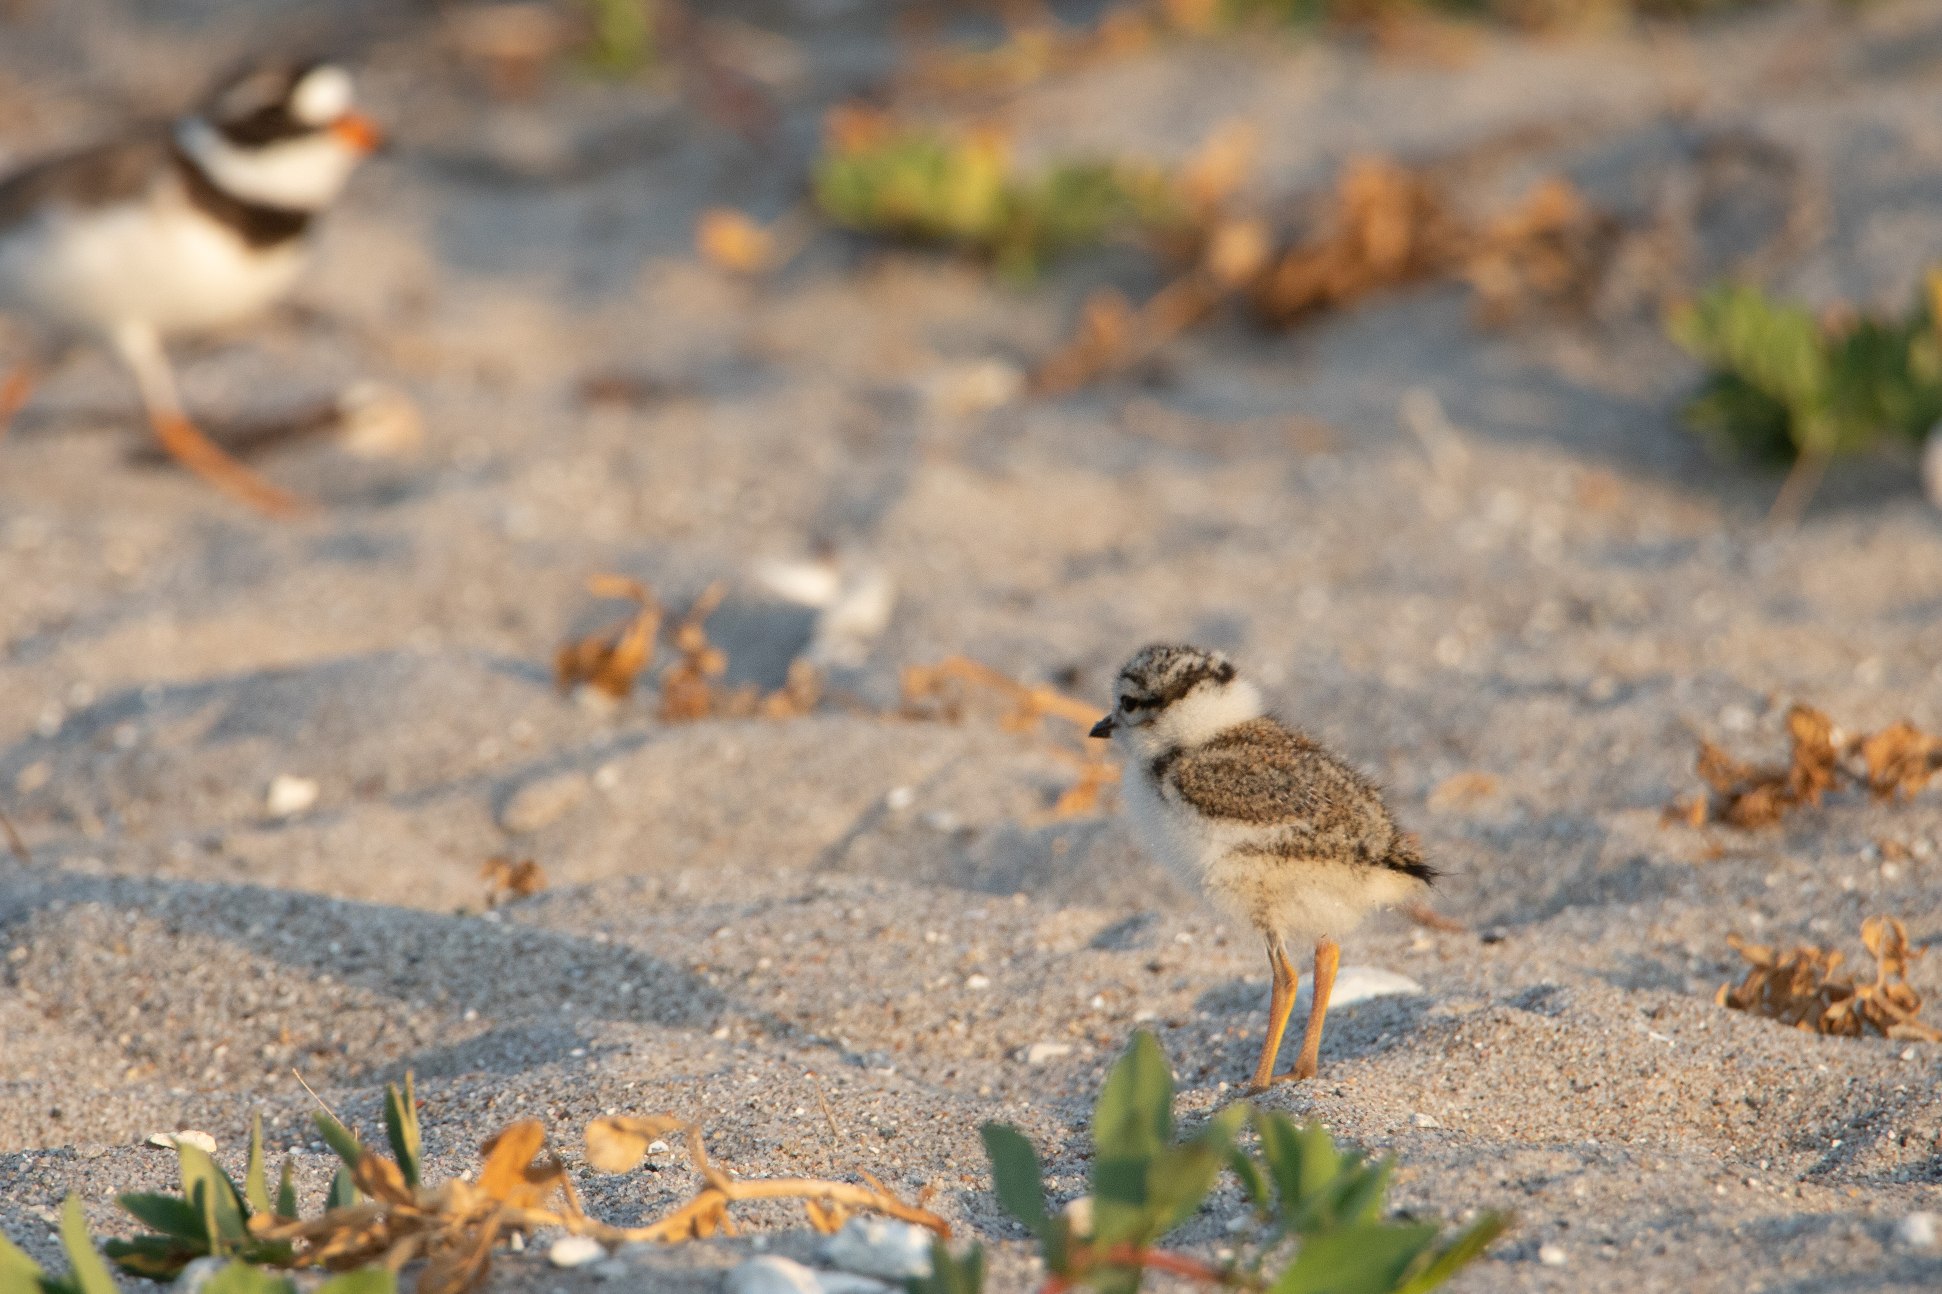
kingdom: Animalia
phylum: Chordata
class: Aves
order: Charadriiformes
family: Charadriidae
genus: Charadrius
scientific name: Charadrius hiaticula
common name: Stor præstekrave
